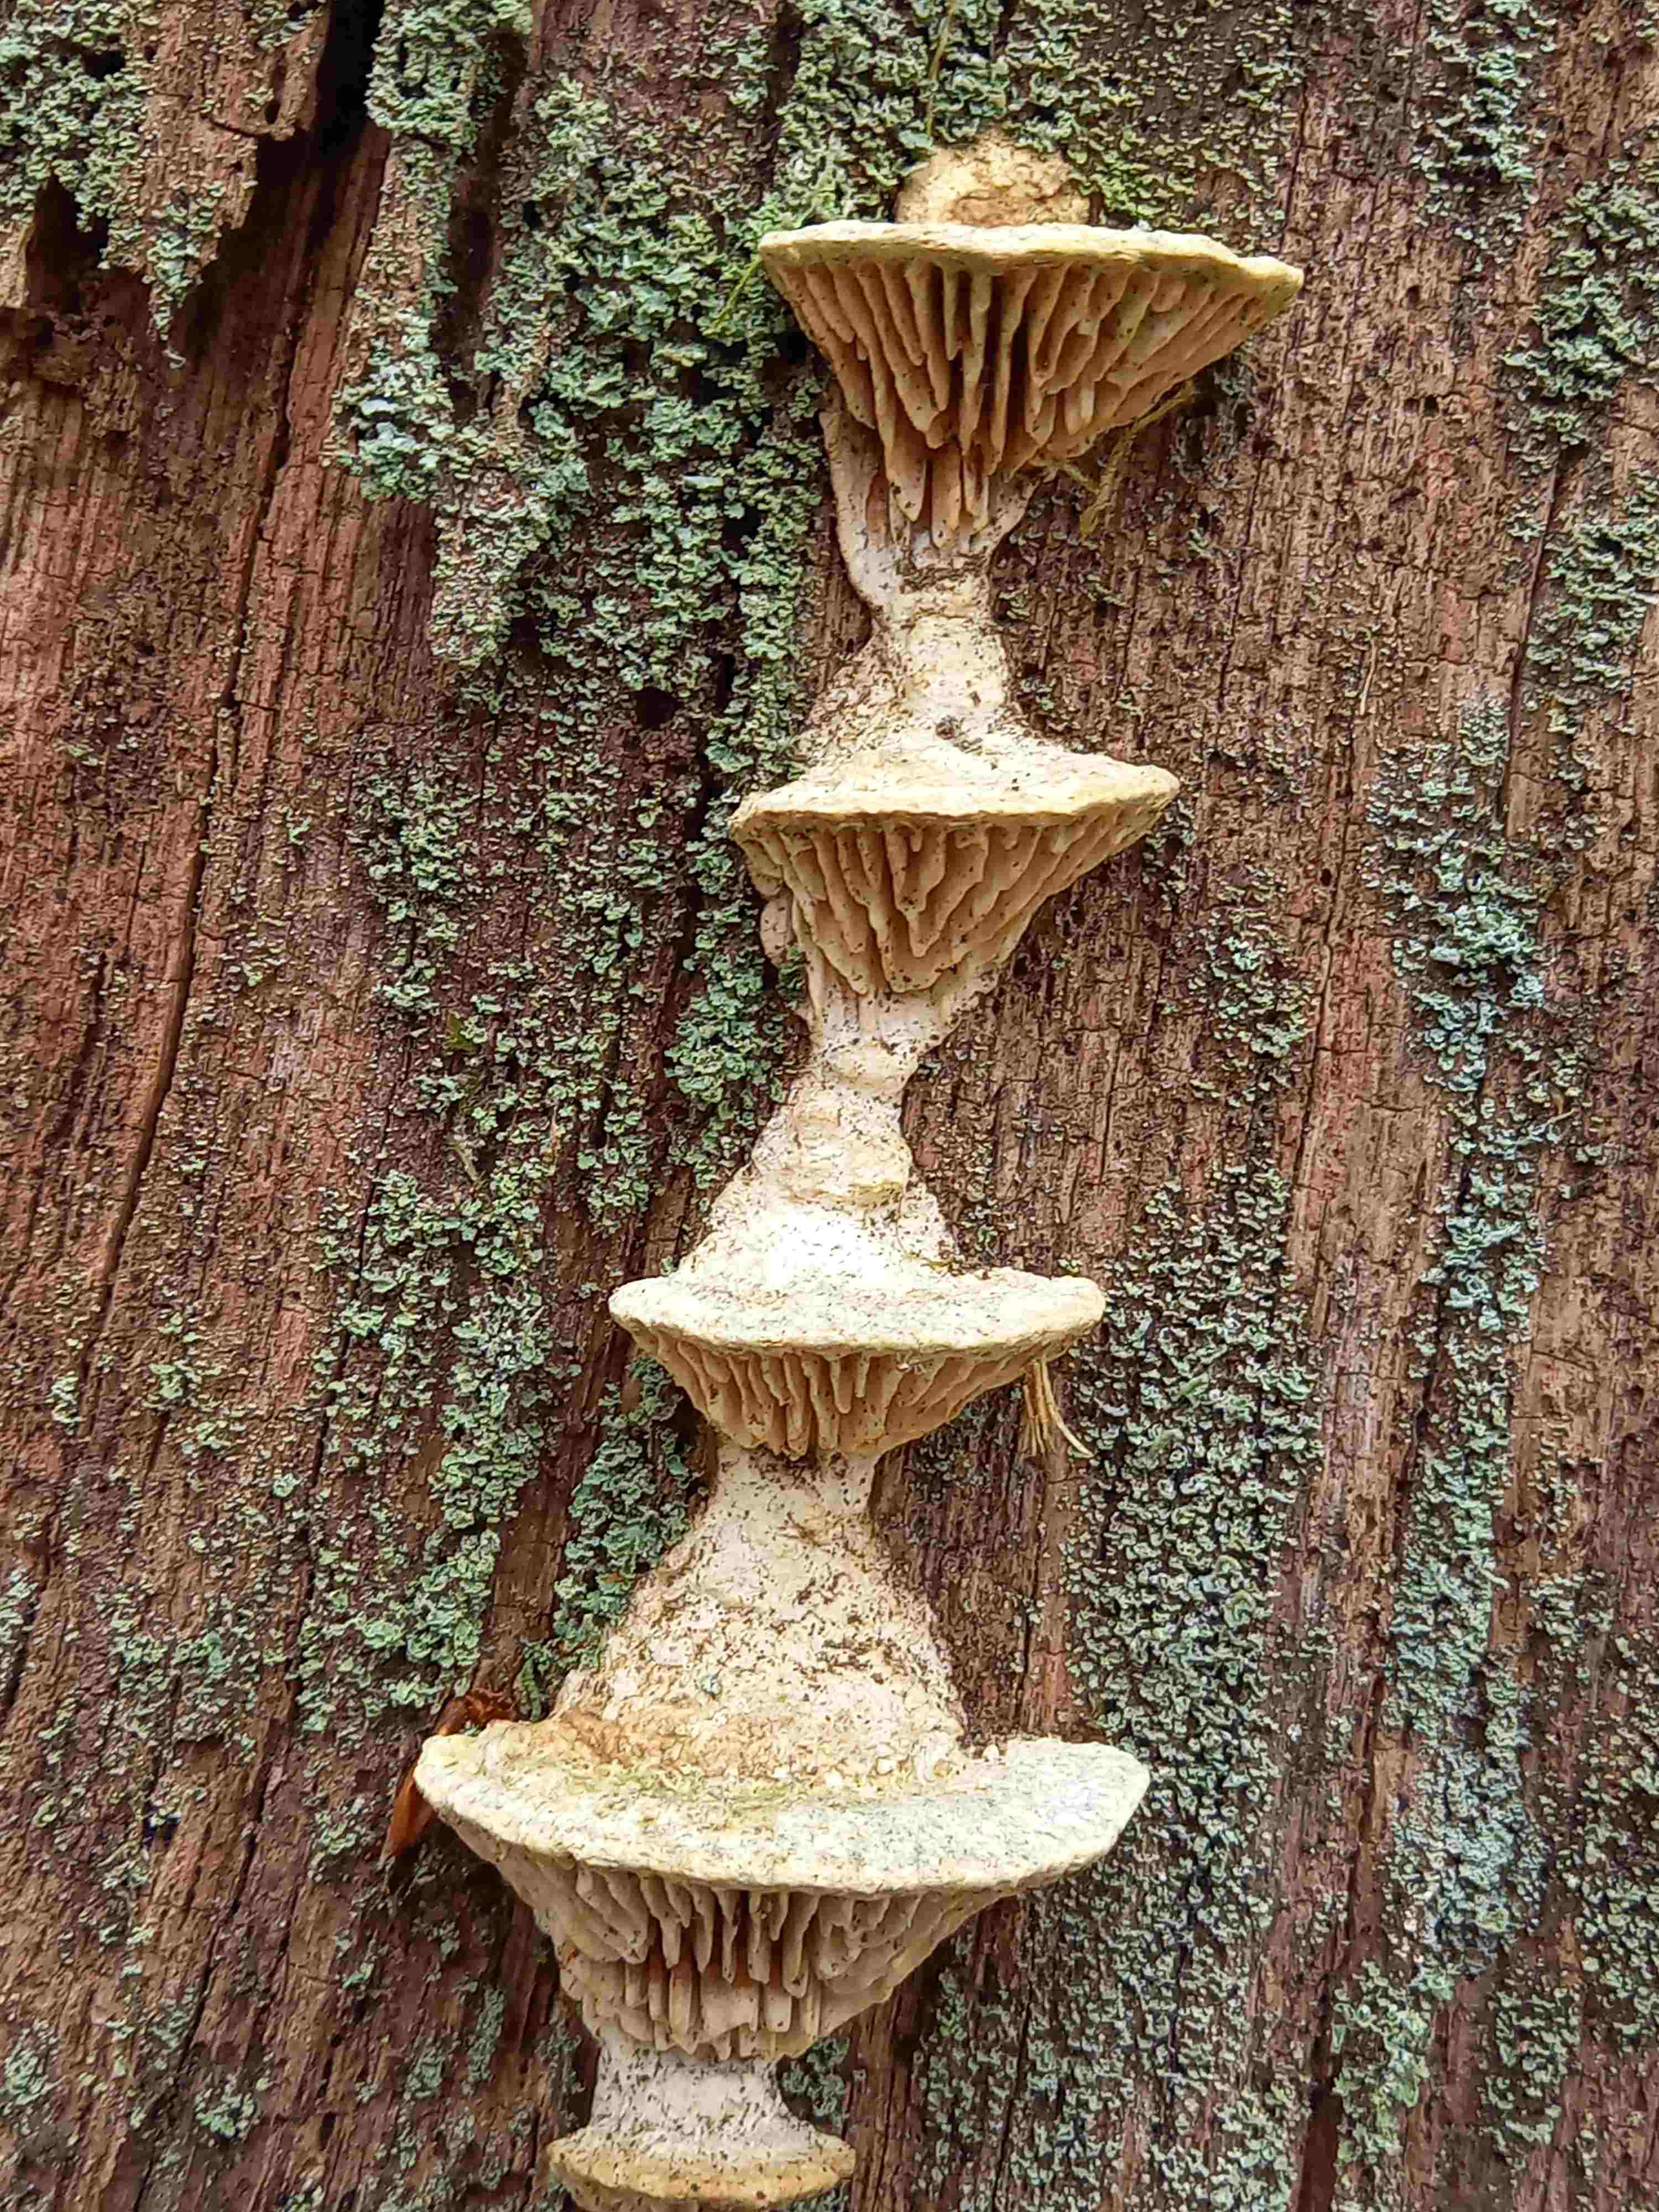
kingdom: Fungi
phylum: Basidiomycota
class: Agaricomycetes
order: Polyporales
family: Fomitopsidaceae
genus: Daedalea
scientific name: Daedalea quercina
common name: ege-labyrintsvamp
